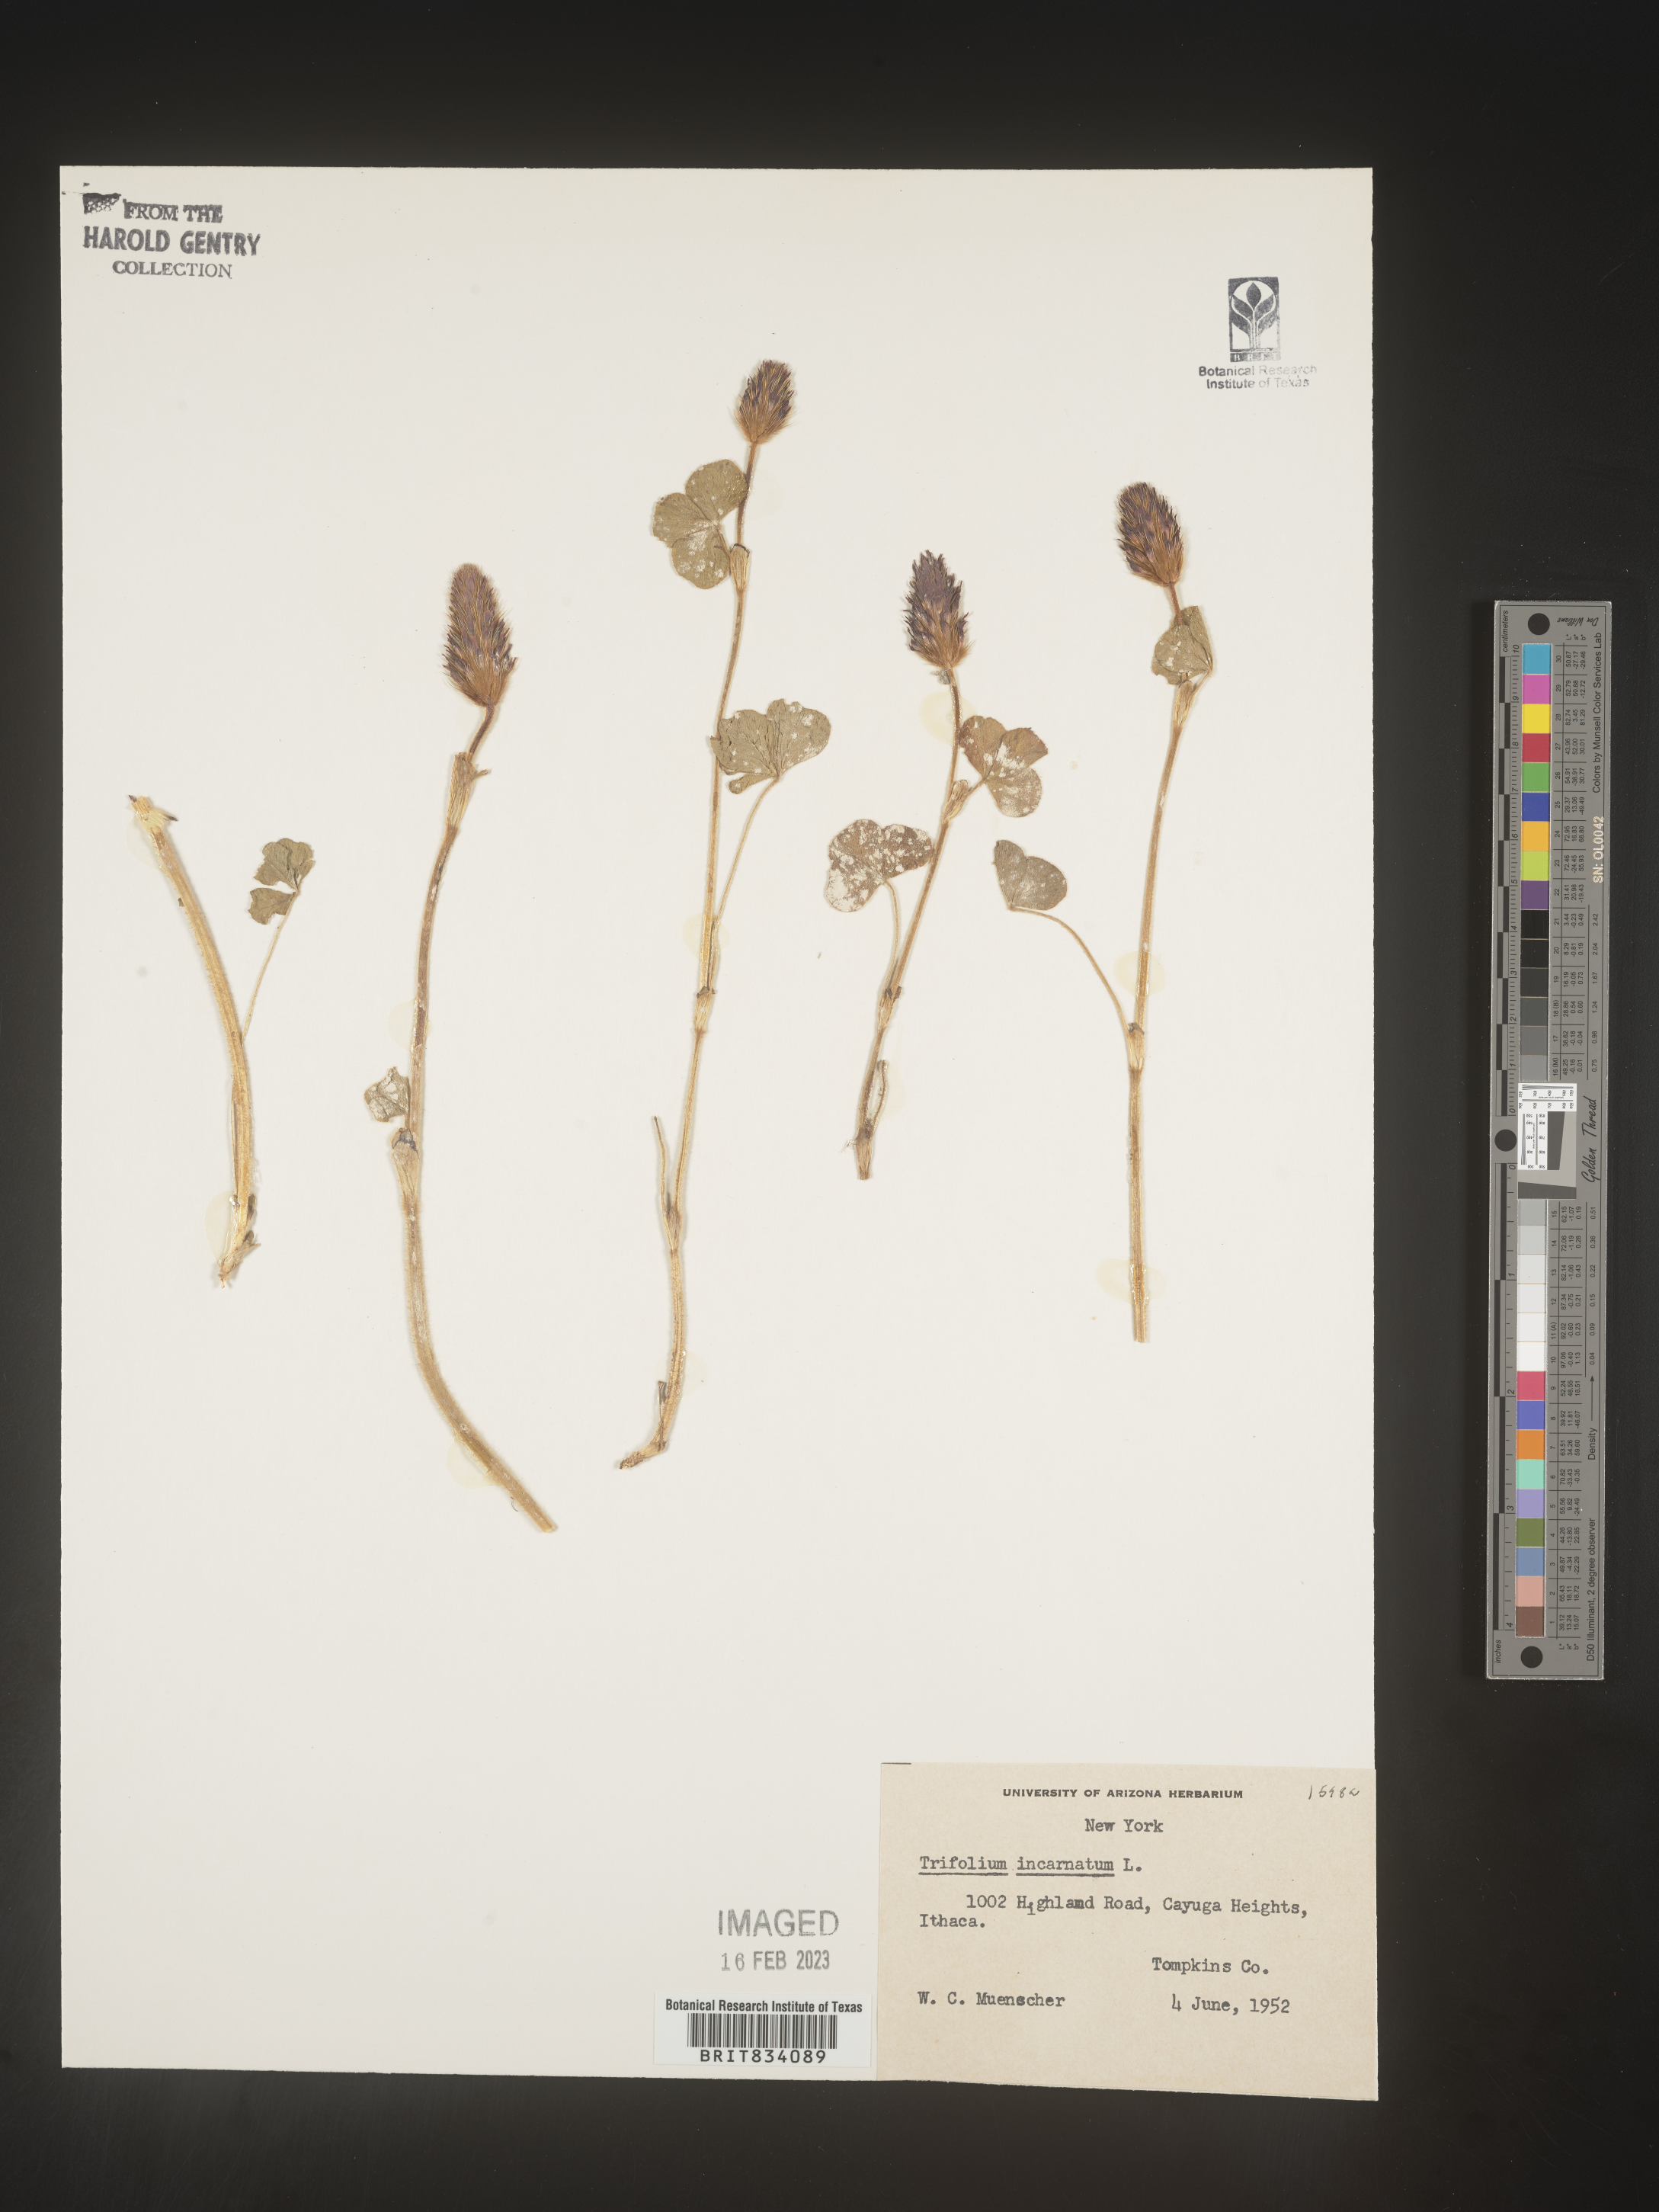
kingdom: Plantae
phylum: Tracheophyta
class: Magnoliopsida
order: Fabales
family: Fabaceae
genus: Trifolium
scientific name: Trifolium incarnatum
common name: Crimson clover
